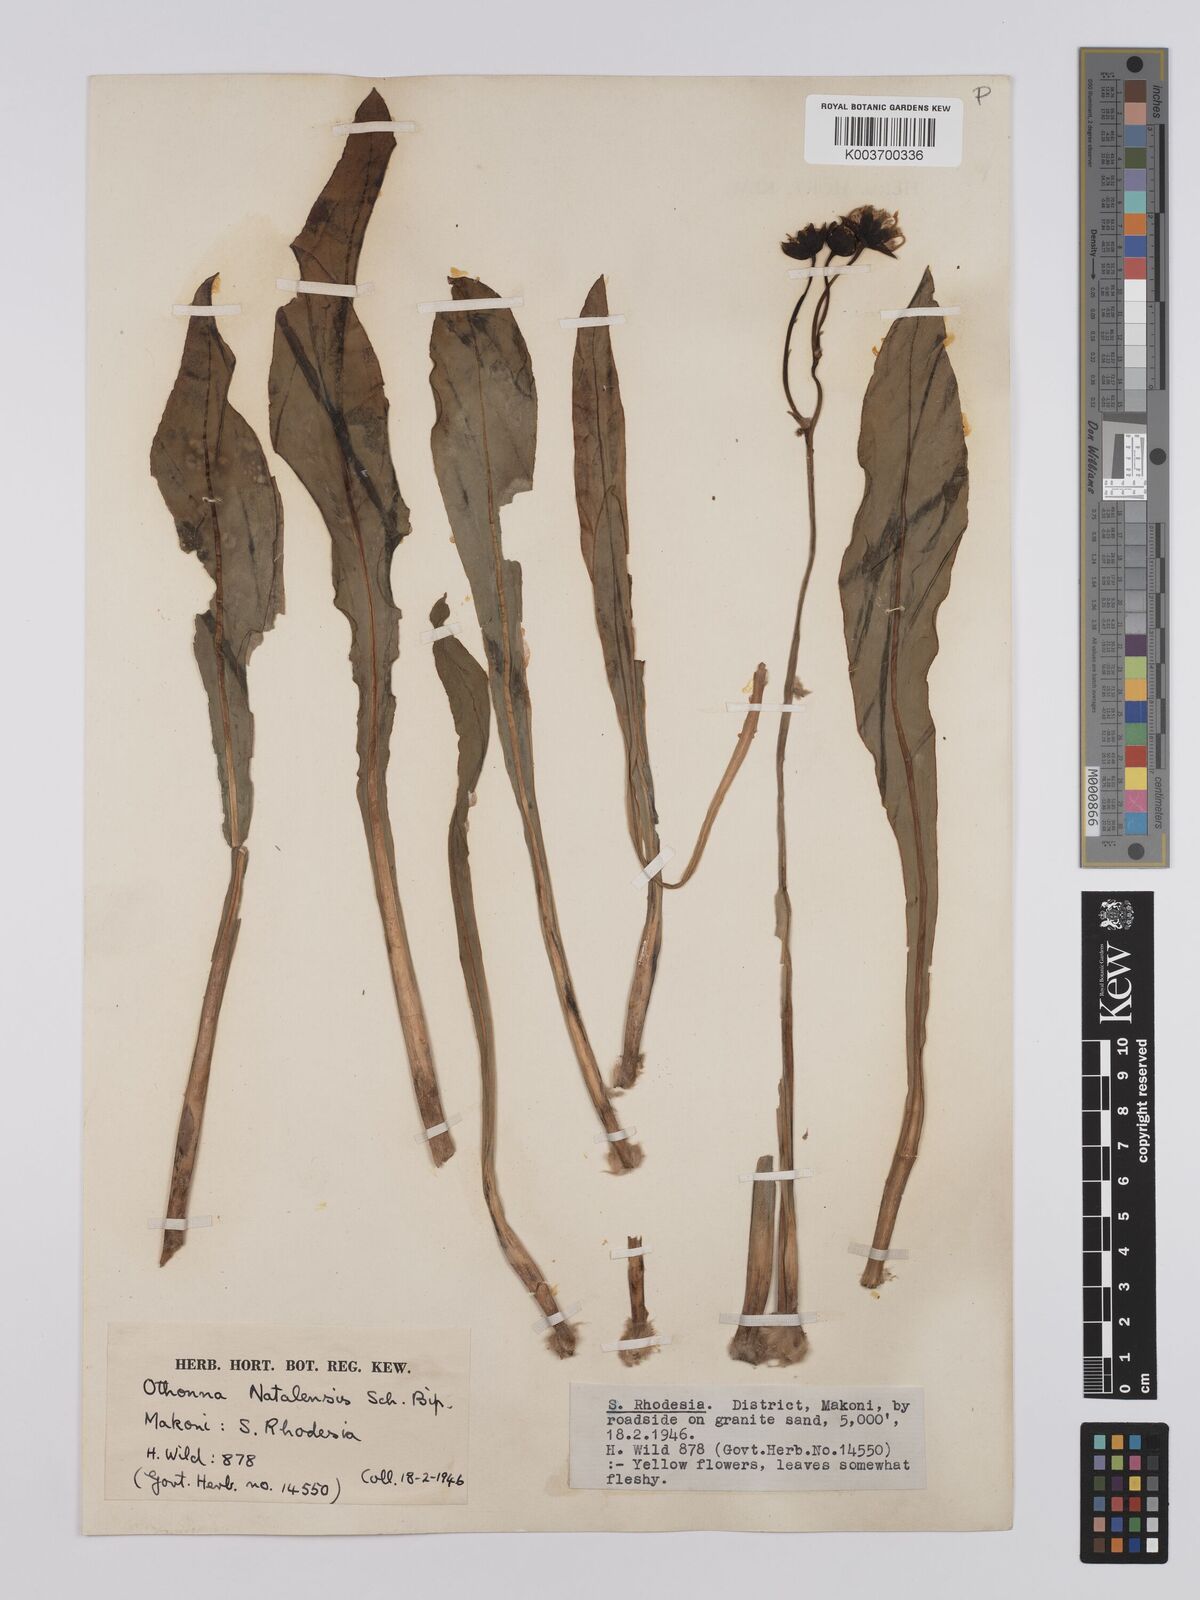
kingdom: Plantae
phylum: Tracheophyta
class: Magnoliopsida
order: Asterales
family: Asteraceae
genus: Othonna
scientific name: Othonna natalensis
